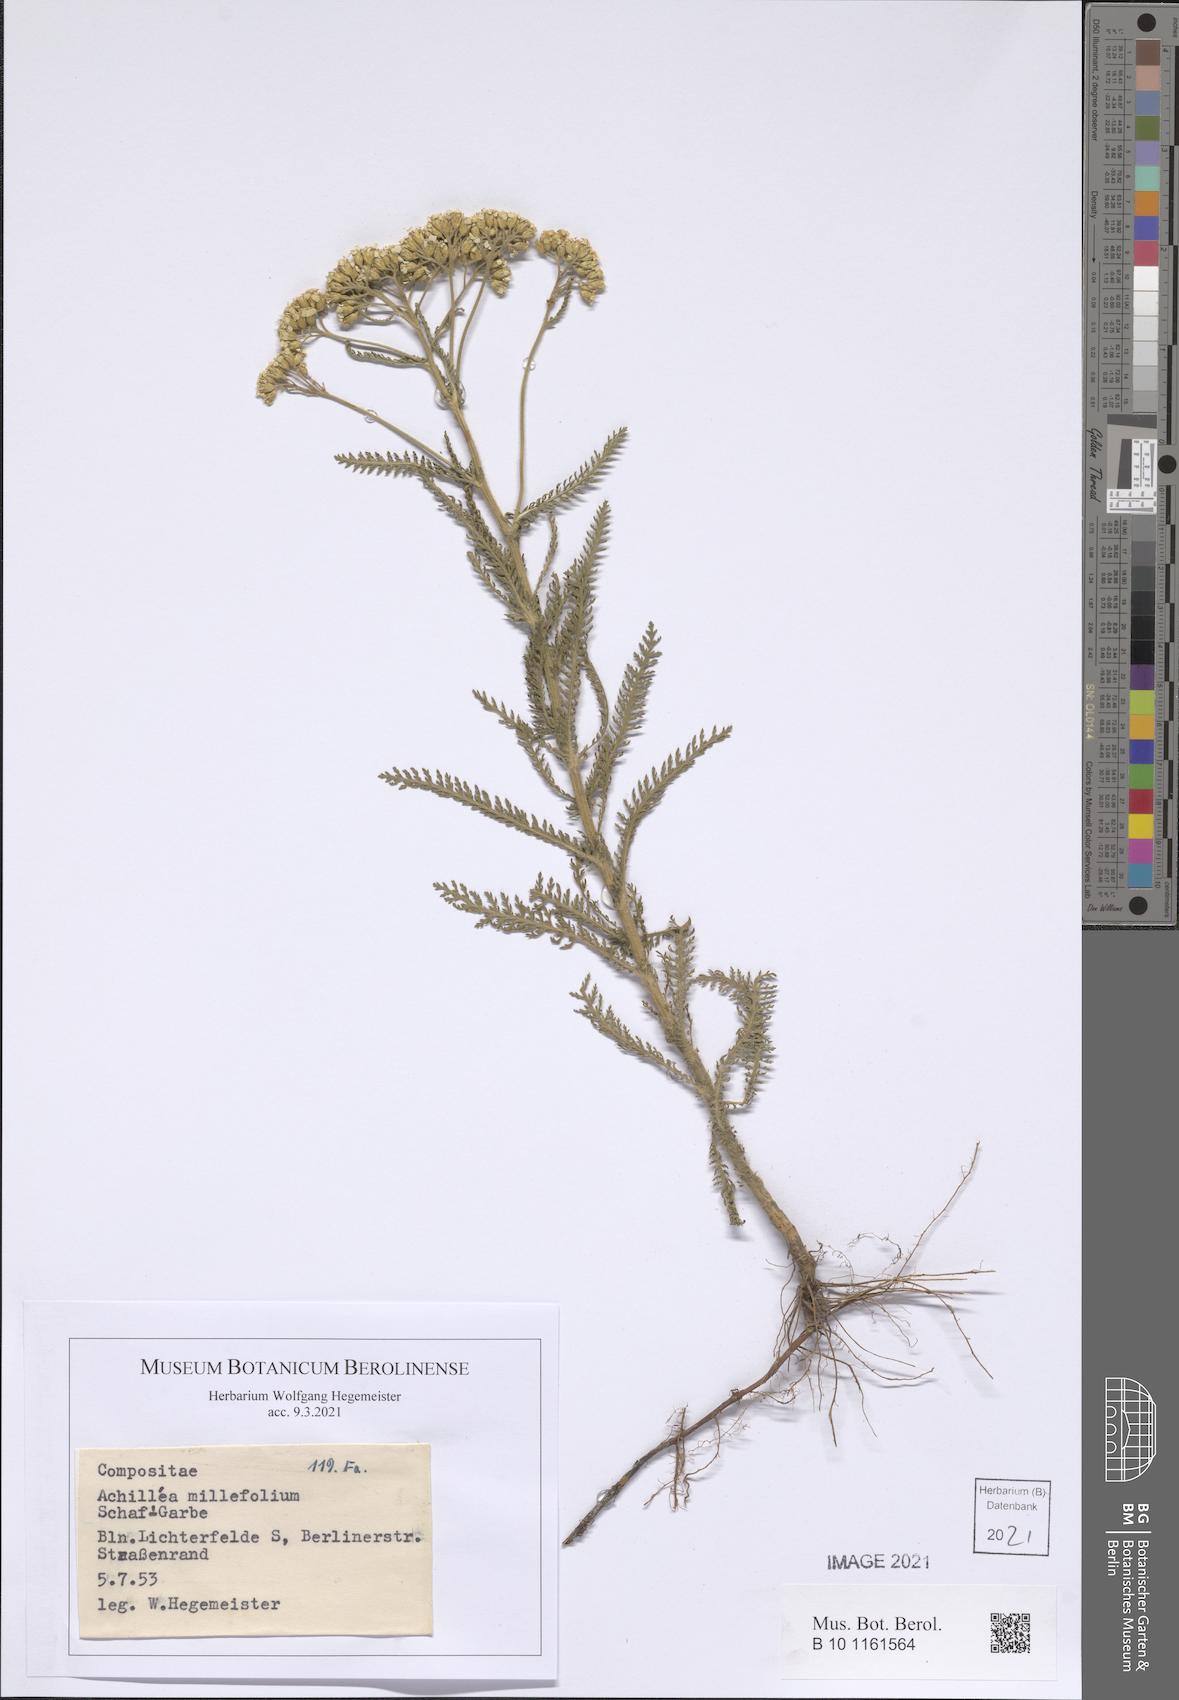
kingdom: Plantae
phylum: Tracheophyta
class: Magnoliopsida
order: Asterales
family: Asteraceae
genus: Achillea
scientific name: Achillea millefolium
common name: Yarrow
